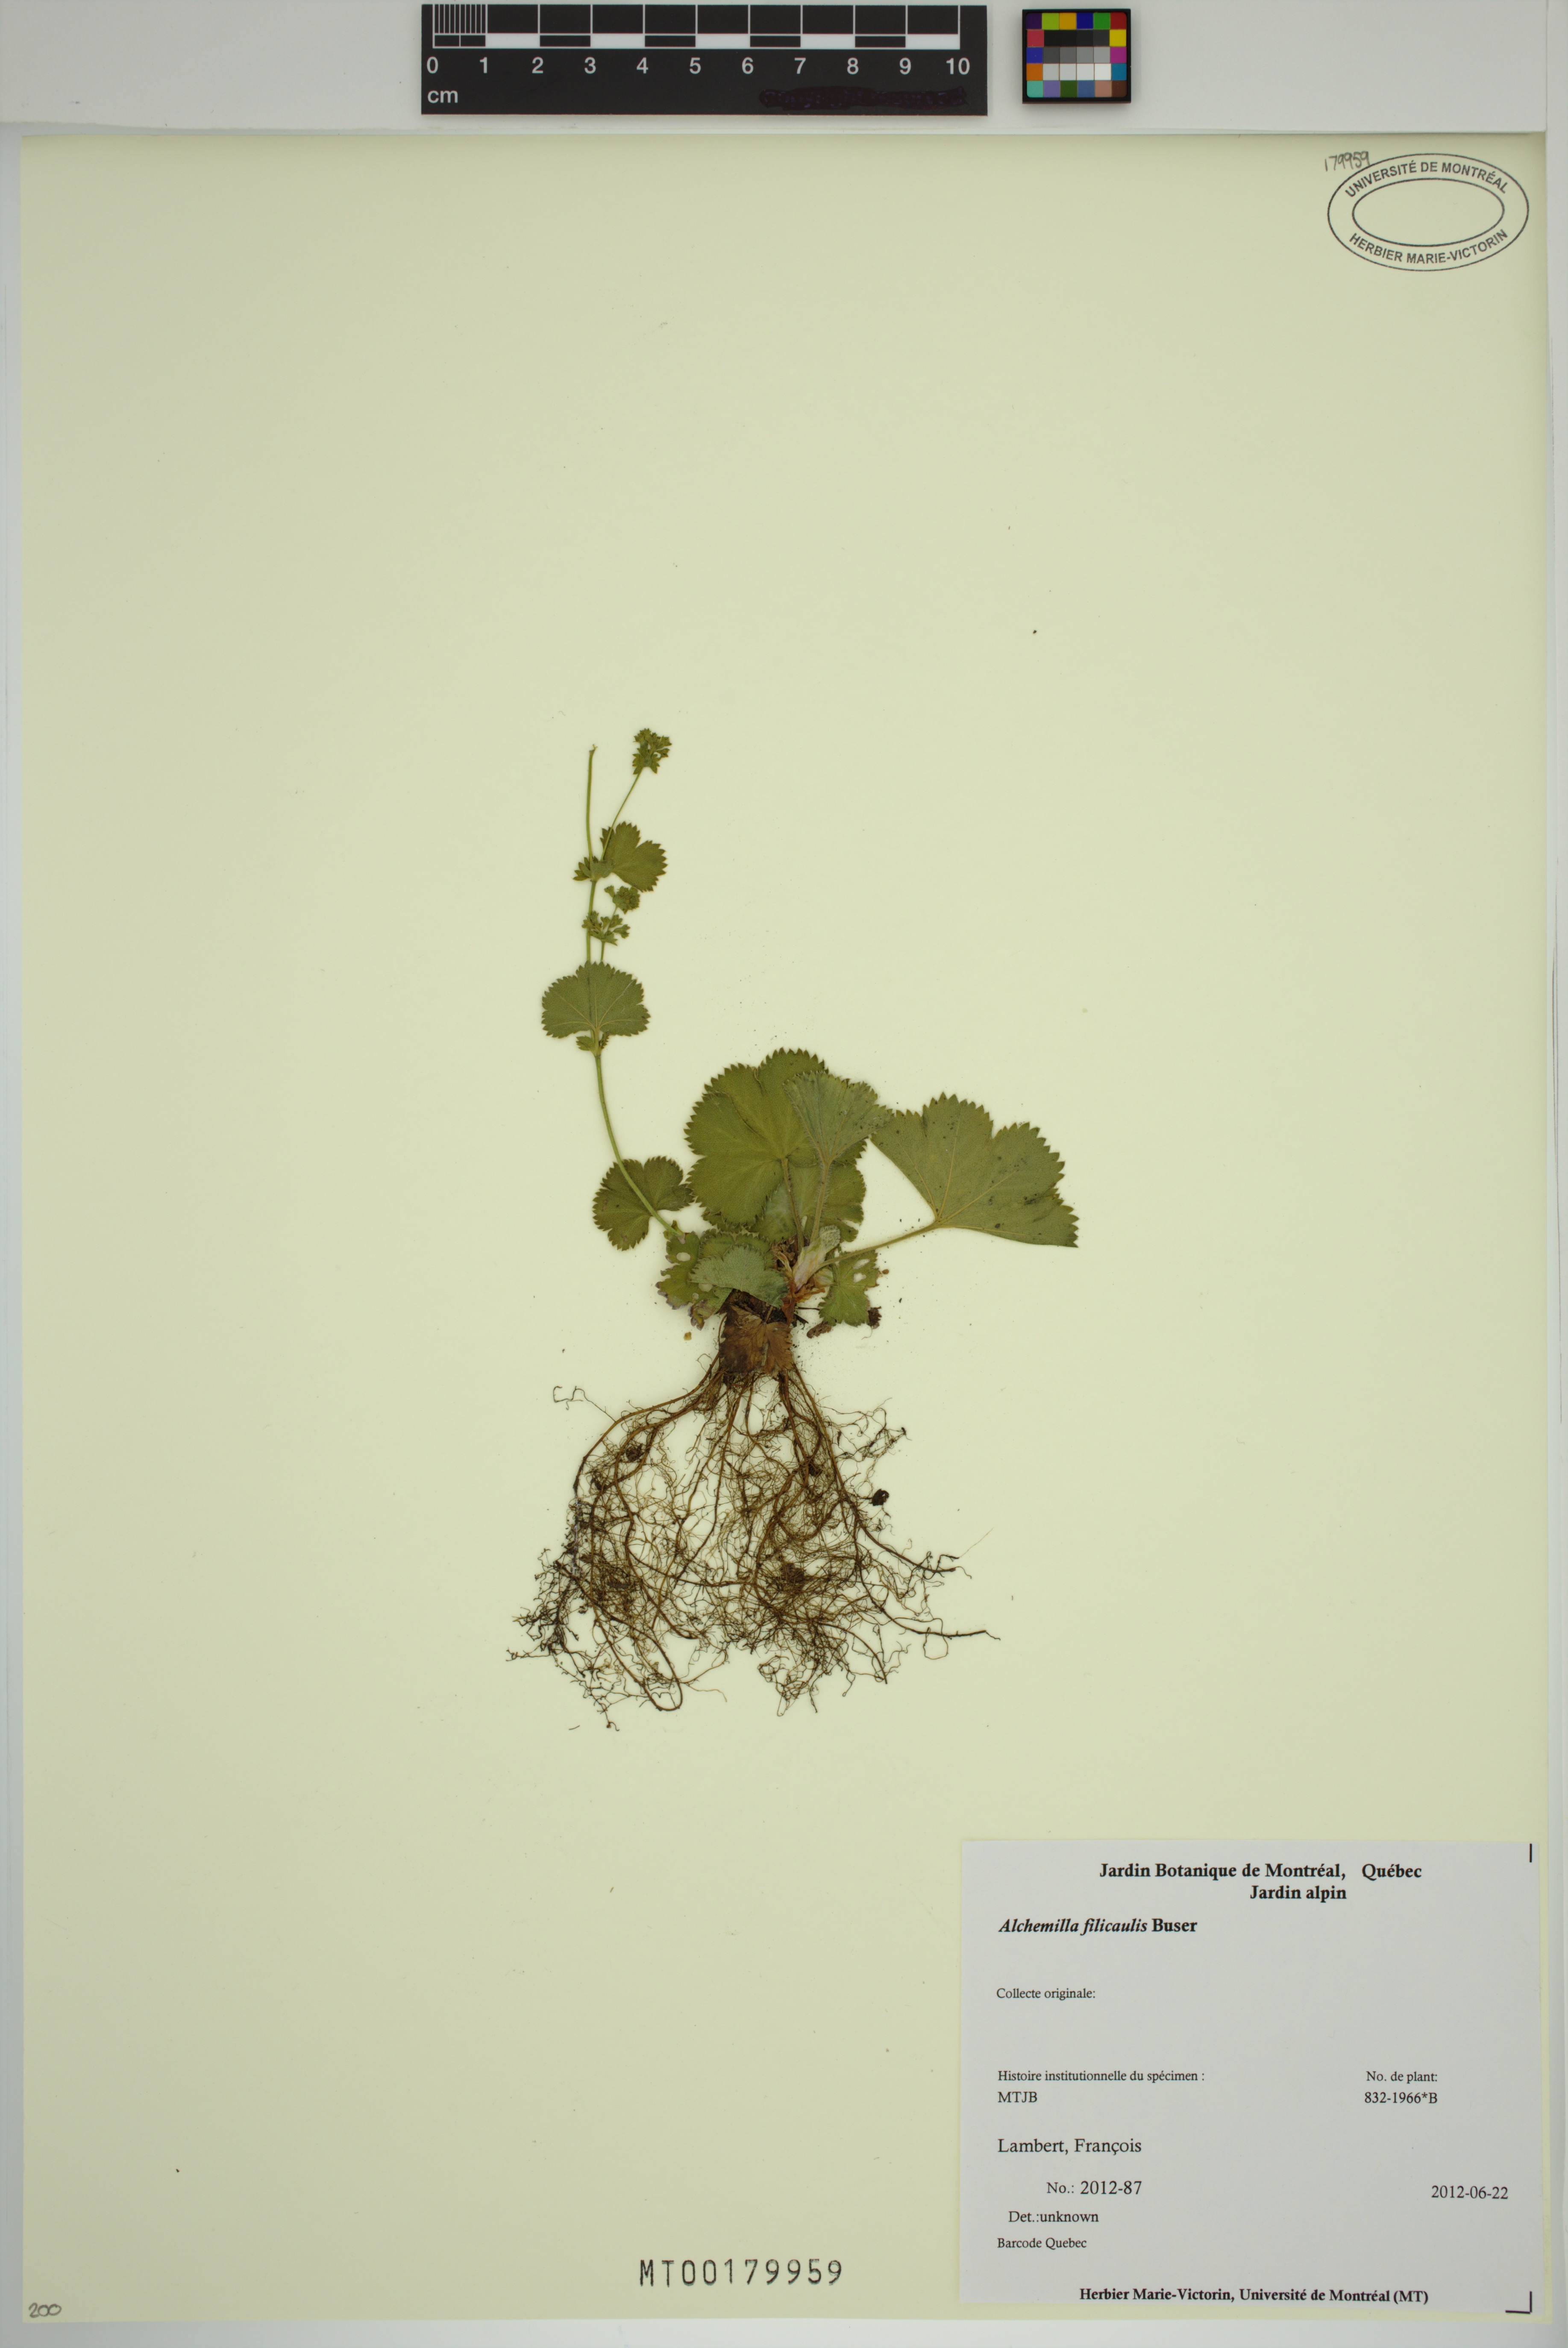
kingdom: Plantae
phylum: Tracheophyta
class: Magnoliopsida
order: Rosales
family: Rosaceae
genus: Alchemilla
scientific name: Alchemilla filicaulis
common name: Hairy lady's-mantle
